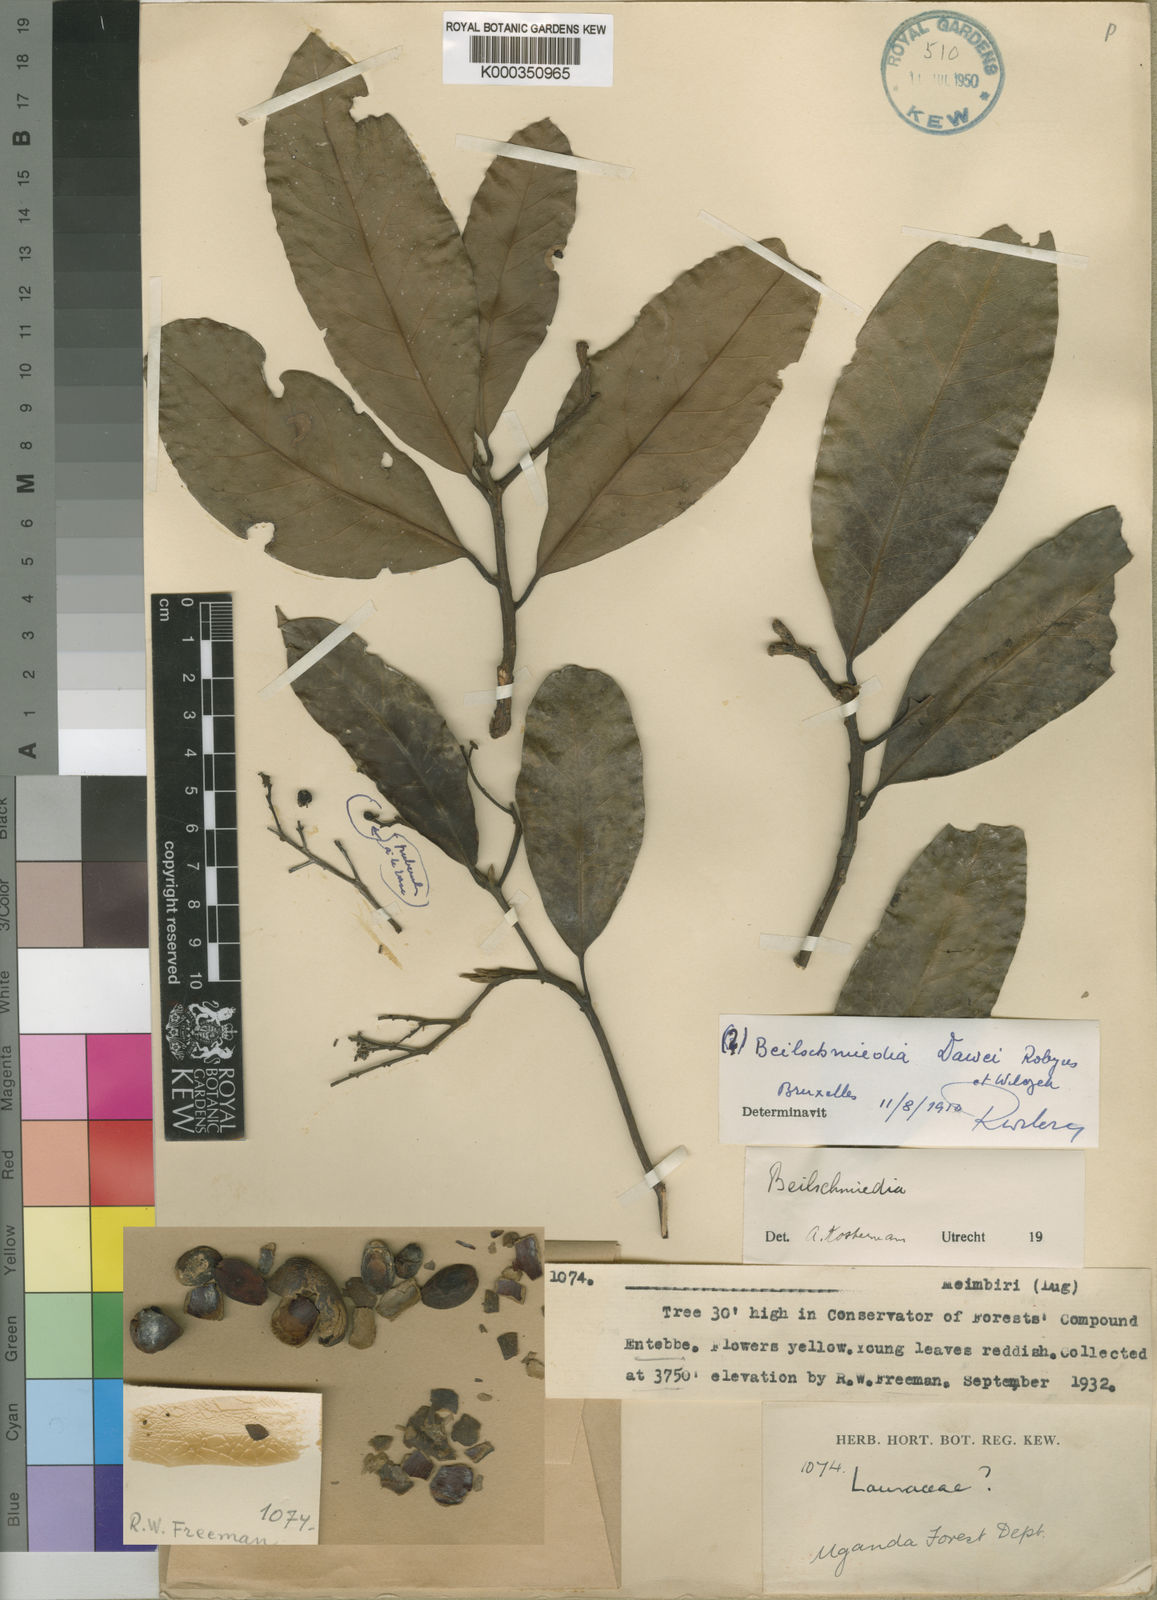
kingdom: Plantae
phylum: Tracheophyta
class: Magnoliopsida
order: Laurales
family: Lauraceae
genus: Beilschmiedia
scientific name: Beilschmiedia ugandensis
